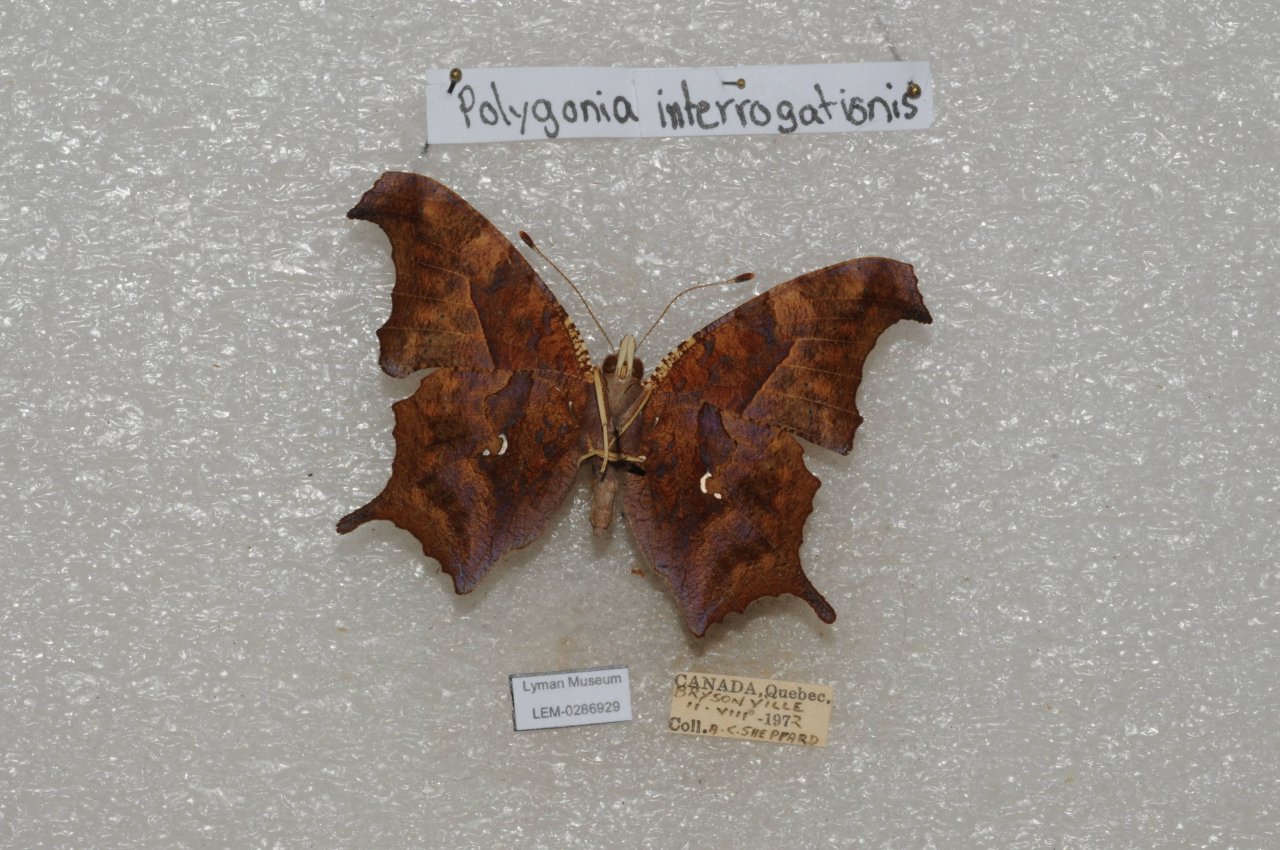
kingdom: Animalia
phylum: Arthropoda
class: Insecta
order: Lepidoptera
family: Nymphalidae
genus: Polygonia
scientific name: Polygonia interrogationis
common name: Question Mark
